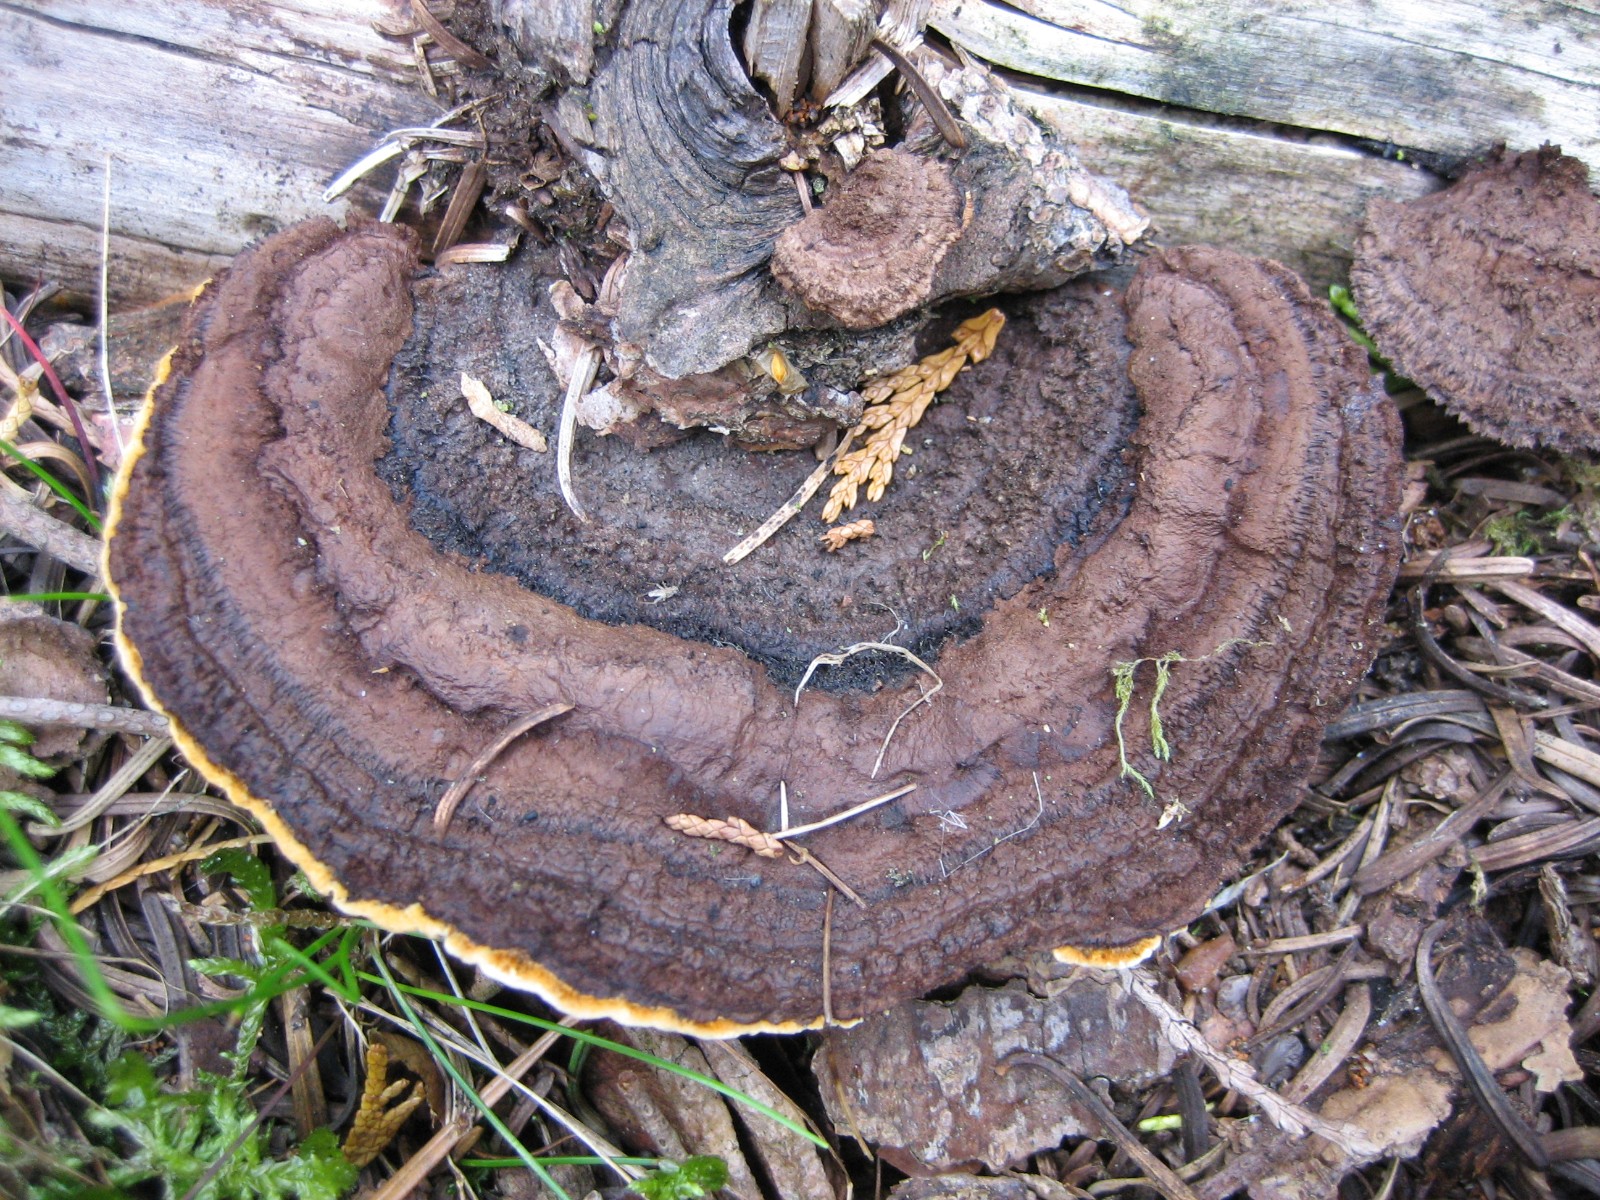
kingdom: Fungi
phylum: Basidiomycota
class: Agaricomycetes
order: Gloeophyllales
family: Gloeophyllaceae
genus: Gloeophyllum
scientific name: Gloeophyllum sepiarium
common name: fyrre-korkhat
